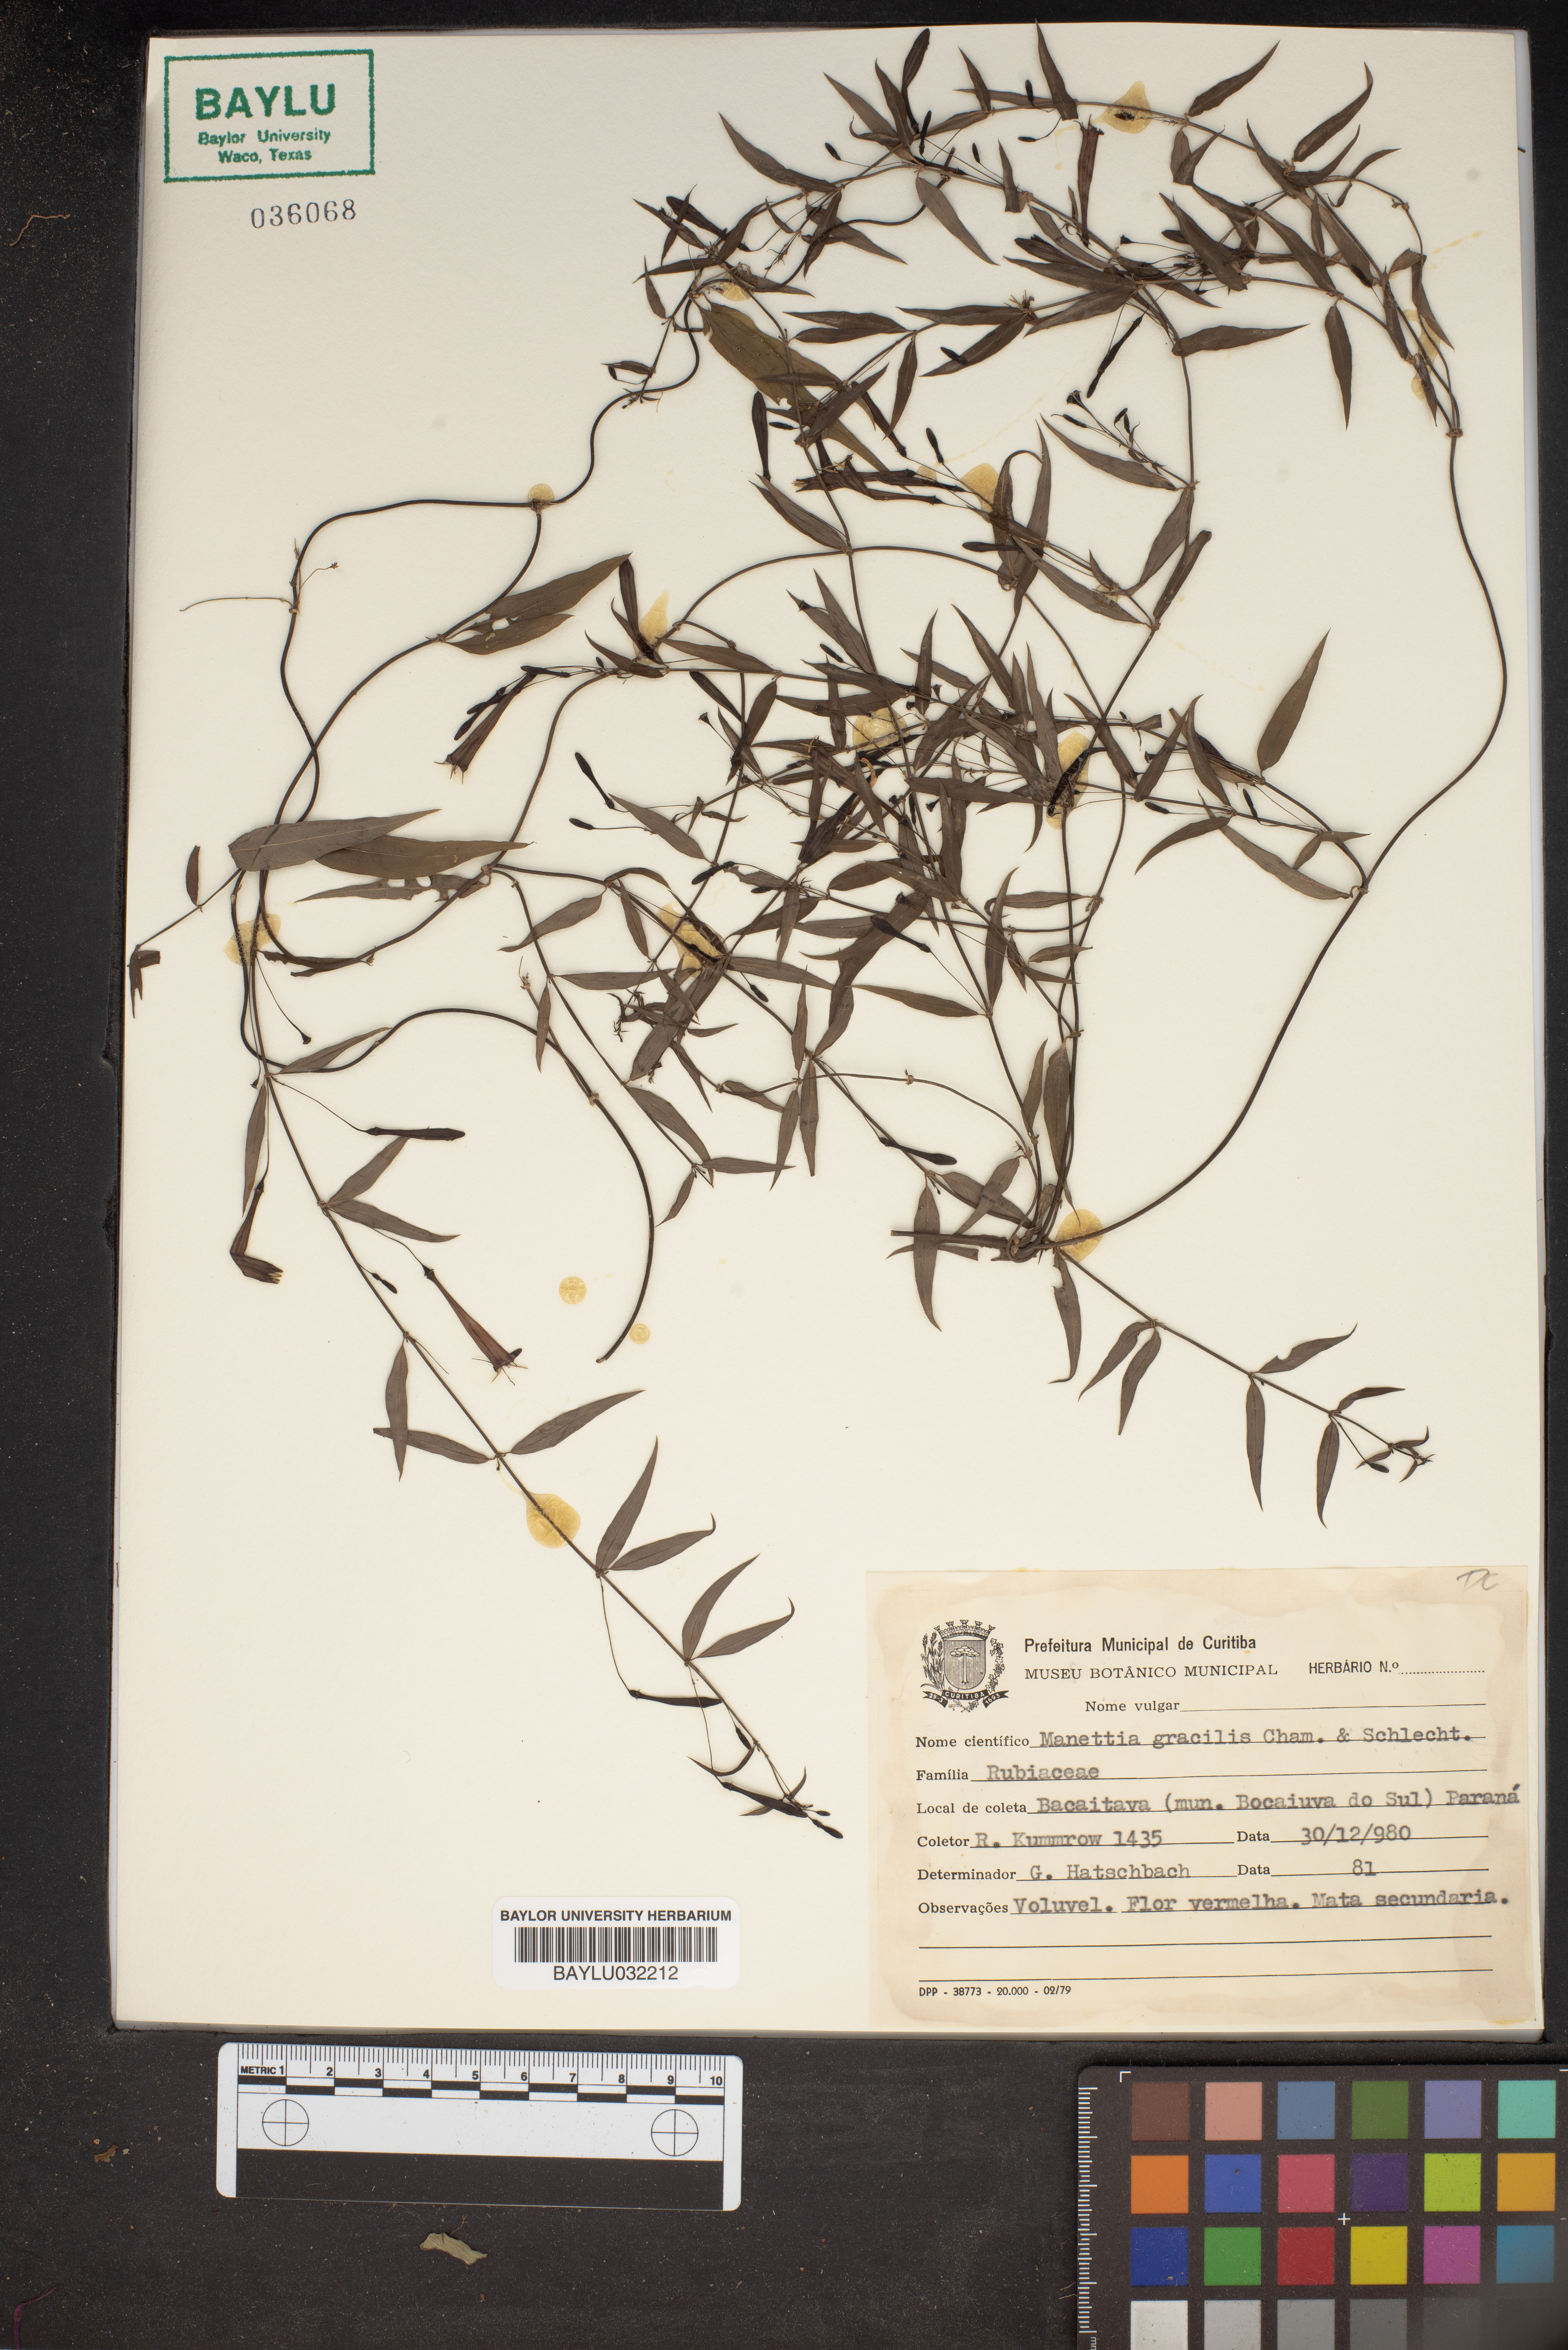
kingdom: Plantae
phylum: Tracheophyta
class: Magnoliopsida
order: Gentianales
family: Rubiaceae
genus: Manettia
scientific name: Manettia gracilis
